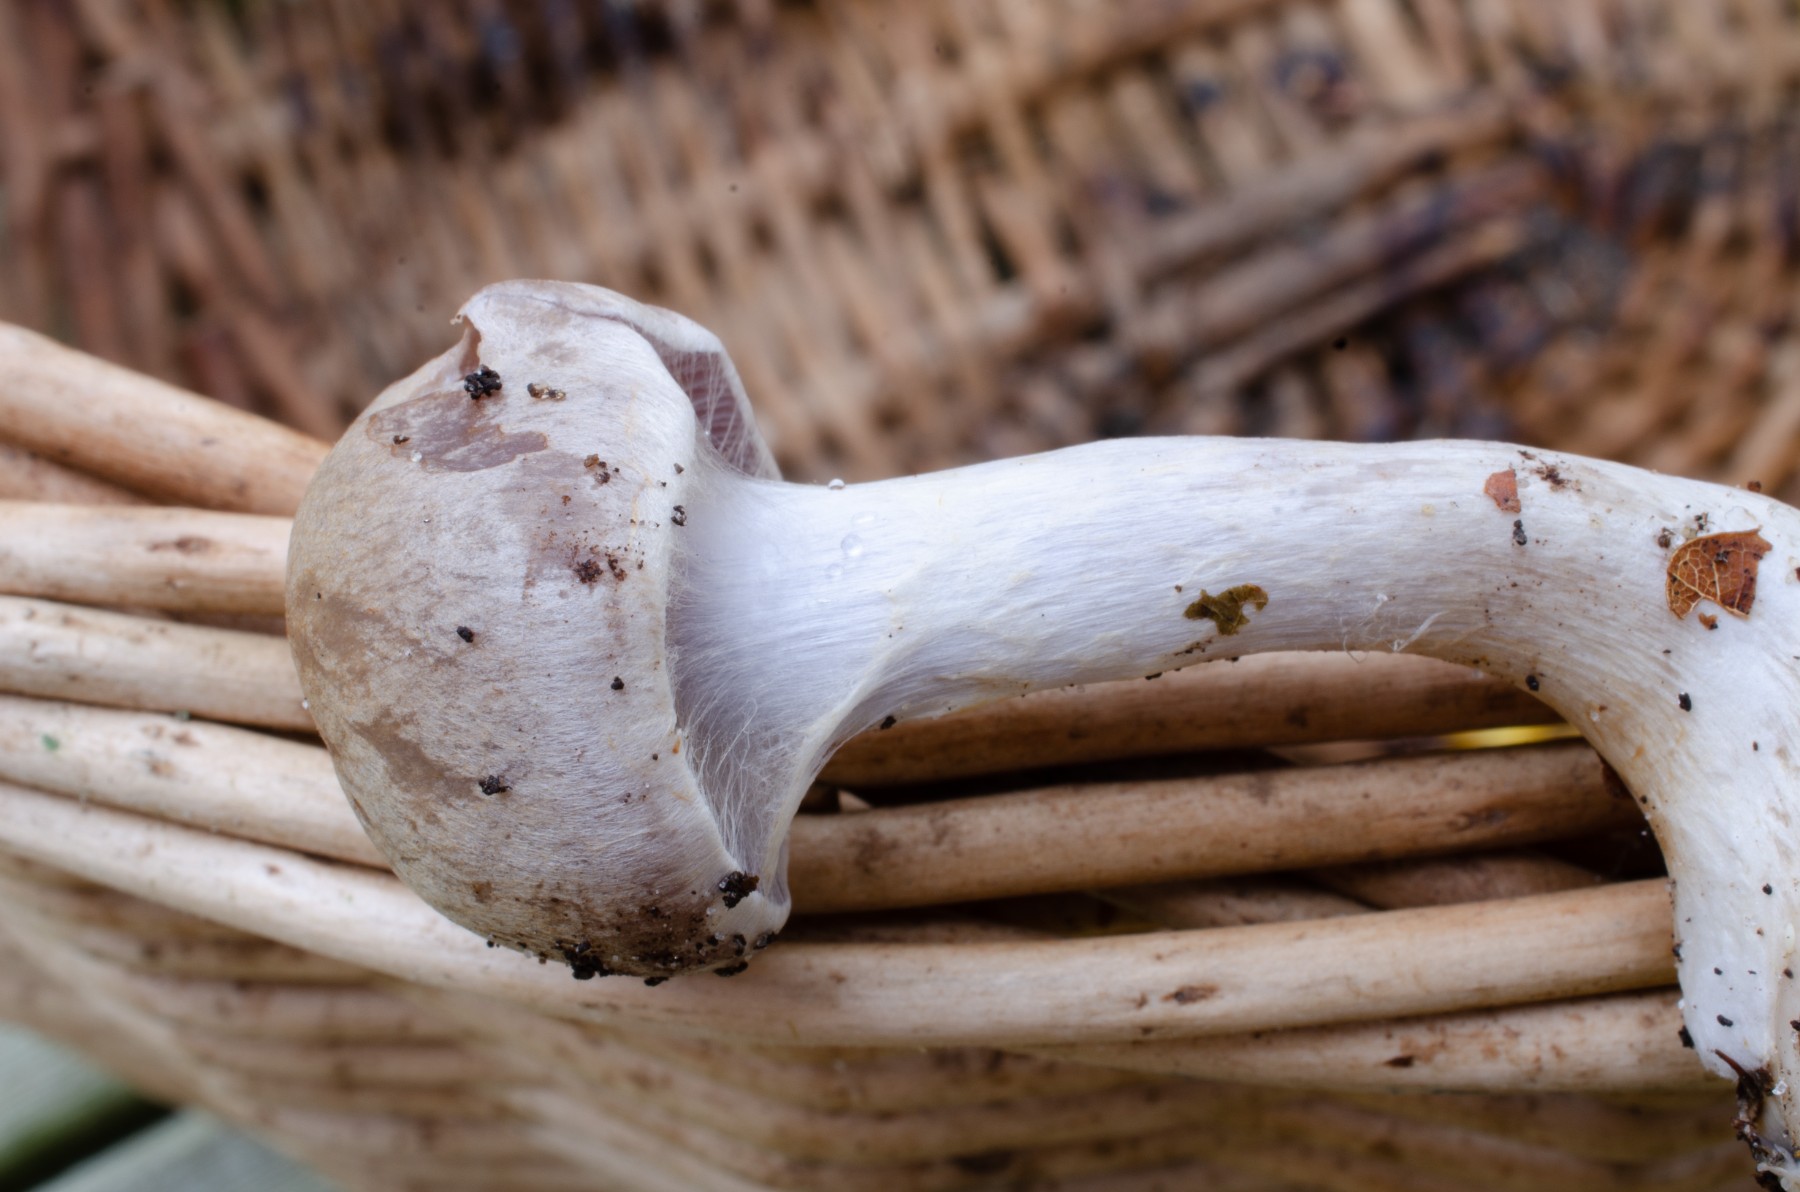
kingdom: Fungi
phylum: Basidiomycota
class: Agaricomycetes
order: Agaricales
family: Cortinariaceae
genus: Cortinarius
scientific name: Cortinarius anomalus
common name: Variable webcap
